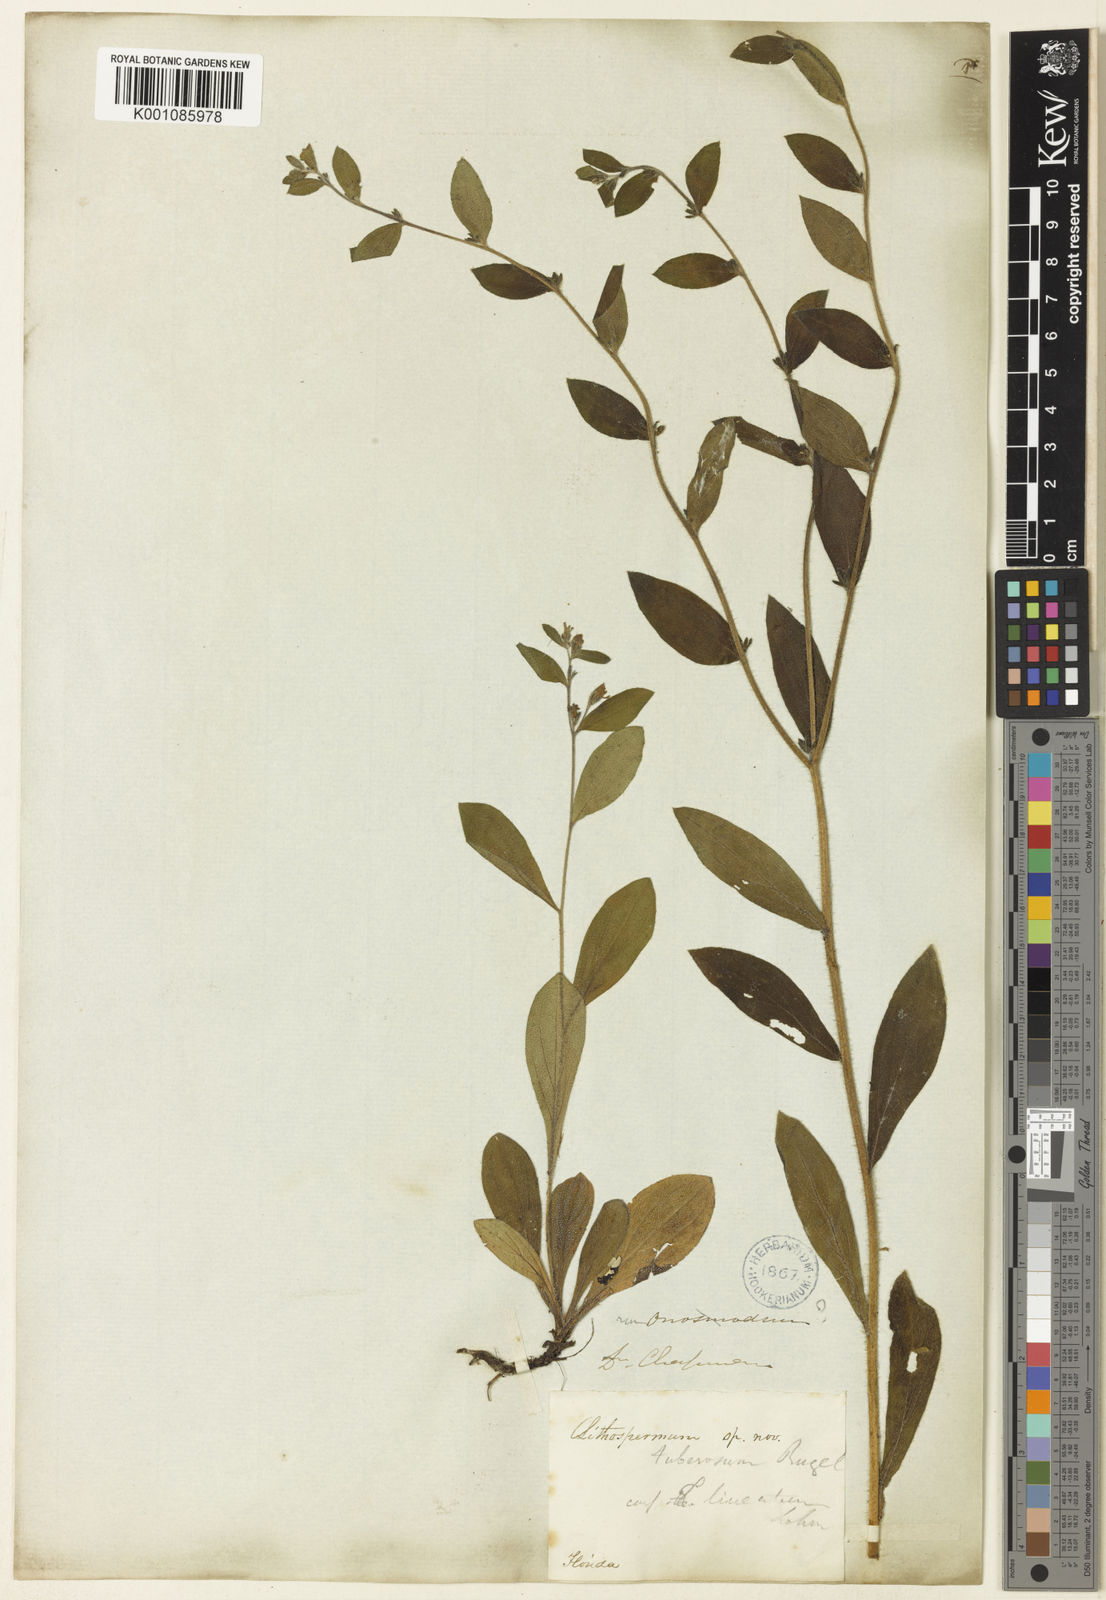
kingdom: Plantae
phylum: Tracheophyta
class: Magnoliopsida
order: Boraginales
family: Boraginaceae
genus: Lithospermum
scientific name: Lithospermum tuberosum
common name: Southern stoneseed
